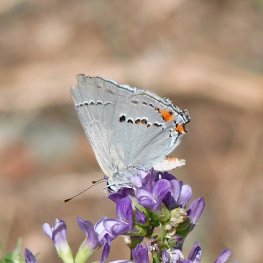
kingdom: Animalia
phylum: Arthropoda
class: Insecta
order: Lepidoptera
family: Lycaenidae
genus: Strymon
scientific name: Strymon melinus
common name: Gray Hairstreak
